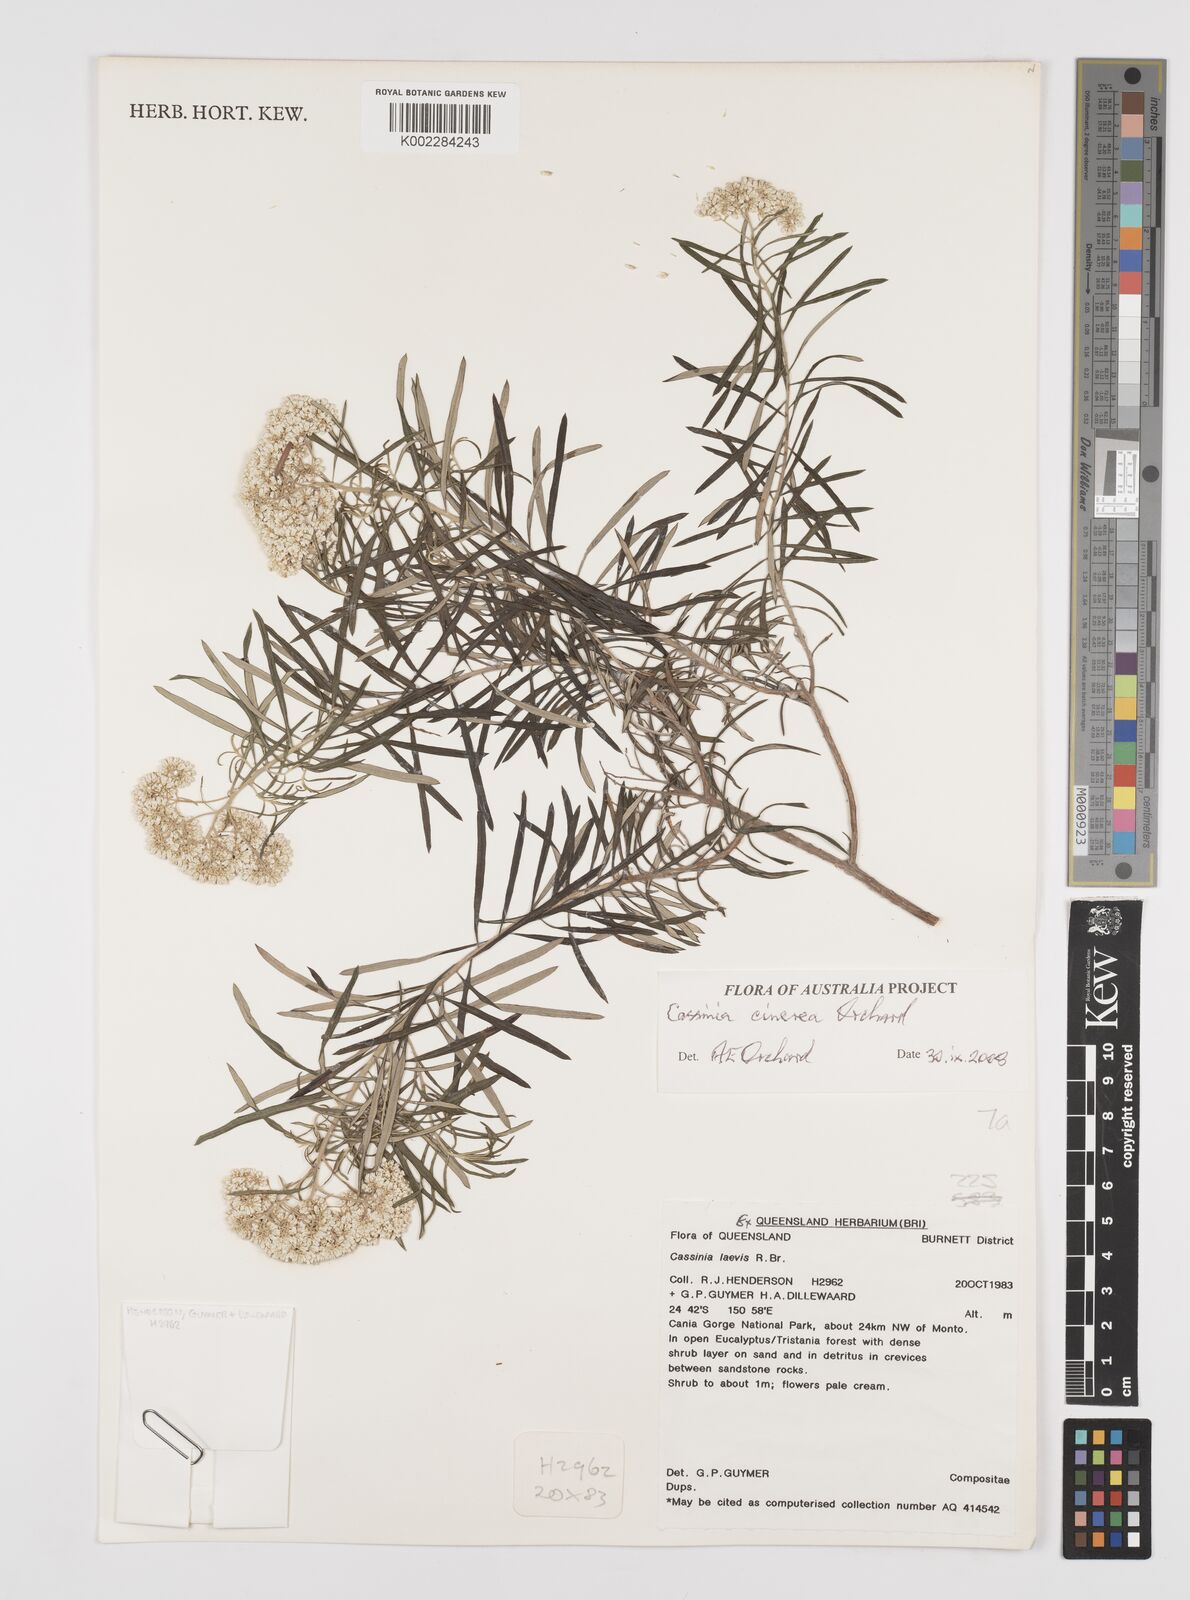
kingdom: Plantae
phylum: Tracheophyta
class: Magnoliopsida
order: Asterales
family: Asteraceae
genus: Cassinia
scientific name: Cassinia cinerea
